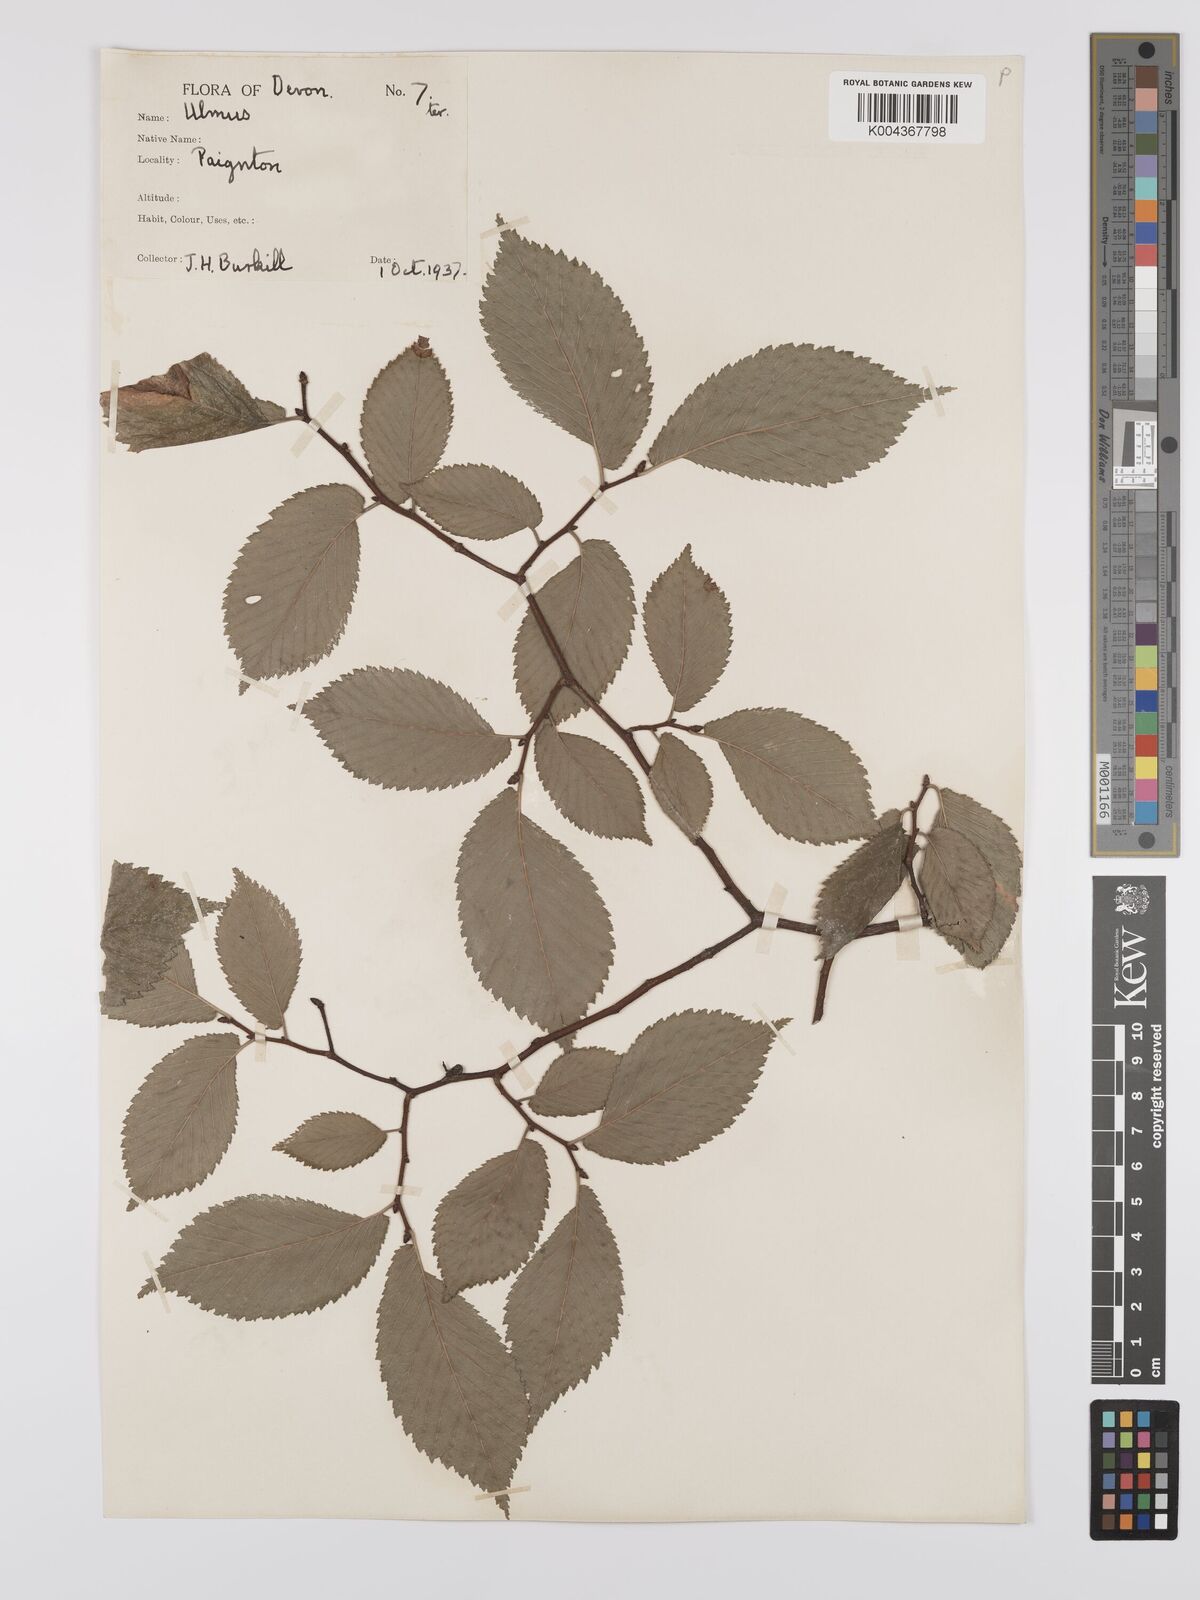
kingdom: Plantae
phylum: Tracheophyta
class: Magnoliopsida
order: Rosales
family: Ulmaceae
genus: Ulmus
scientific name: Ulmus
